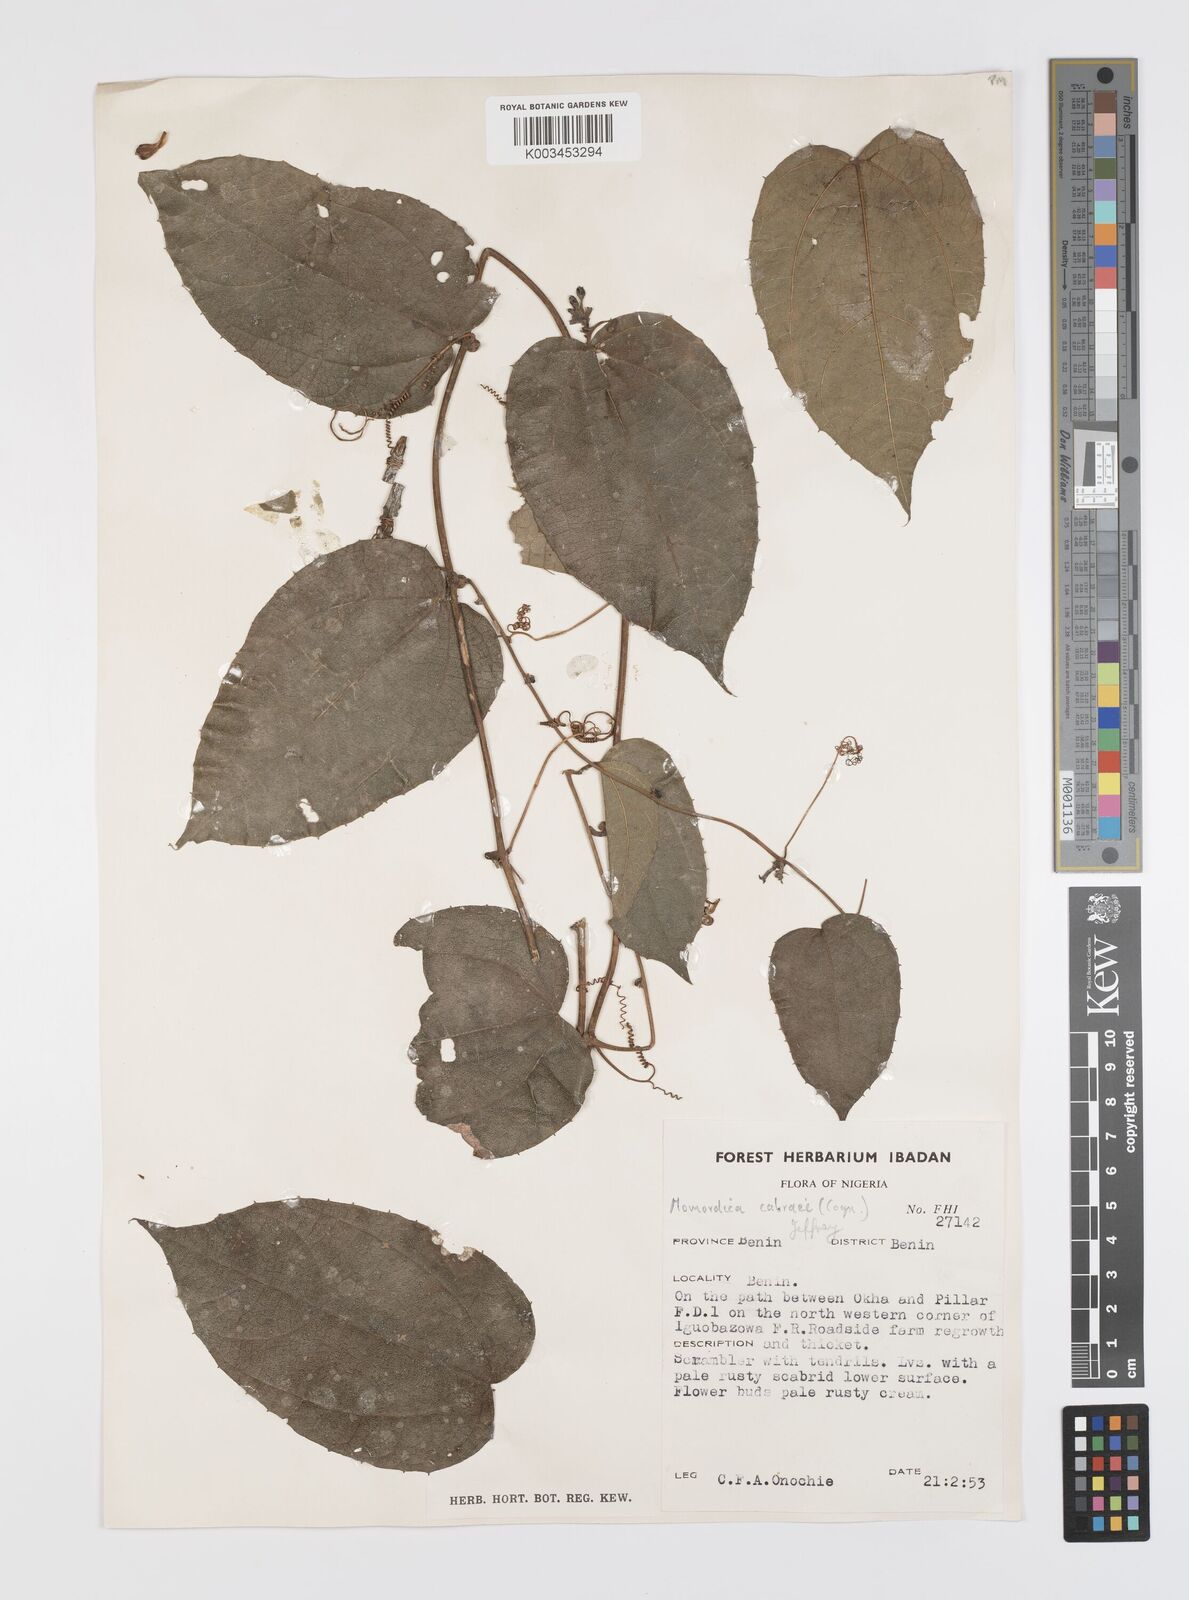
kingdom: Plantae
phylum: Tracheophyta
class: Magnoliopsida
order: Cucurbitales
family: Cucurbitaceae
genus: Momordica
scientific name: Momordica cabrae
